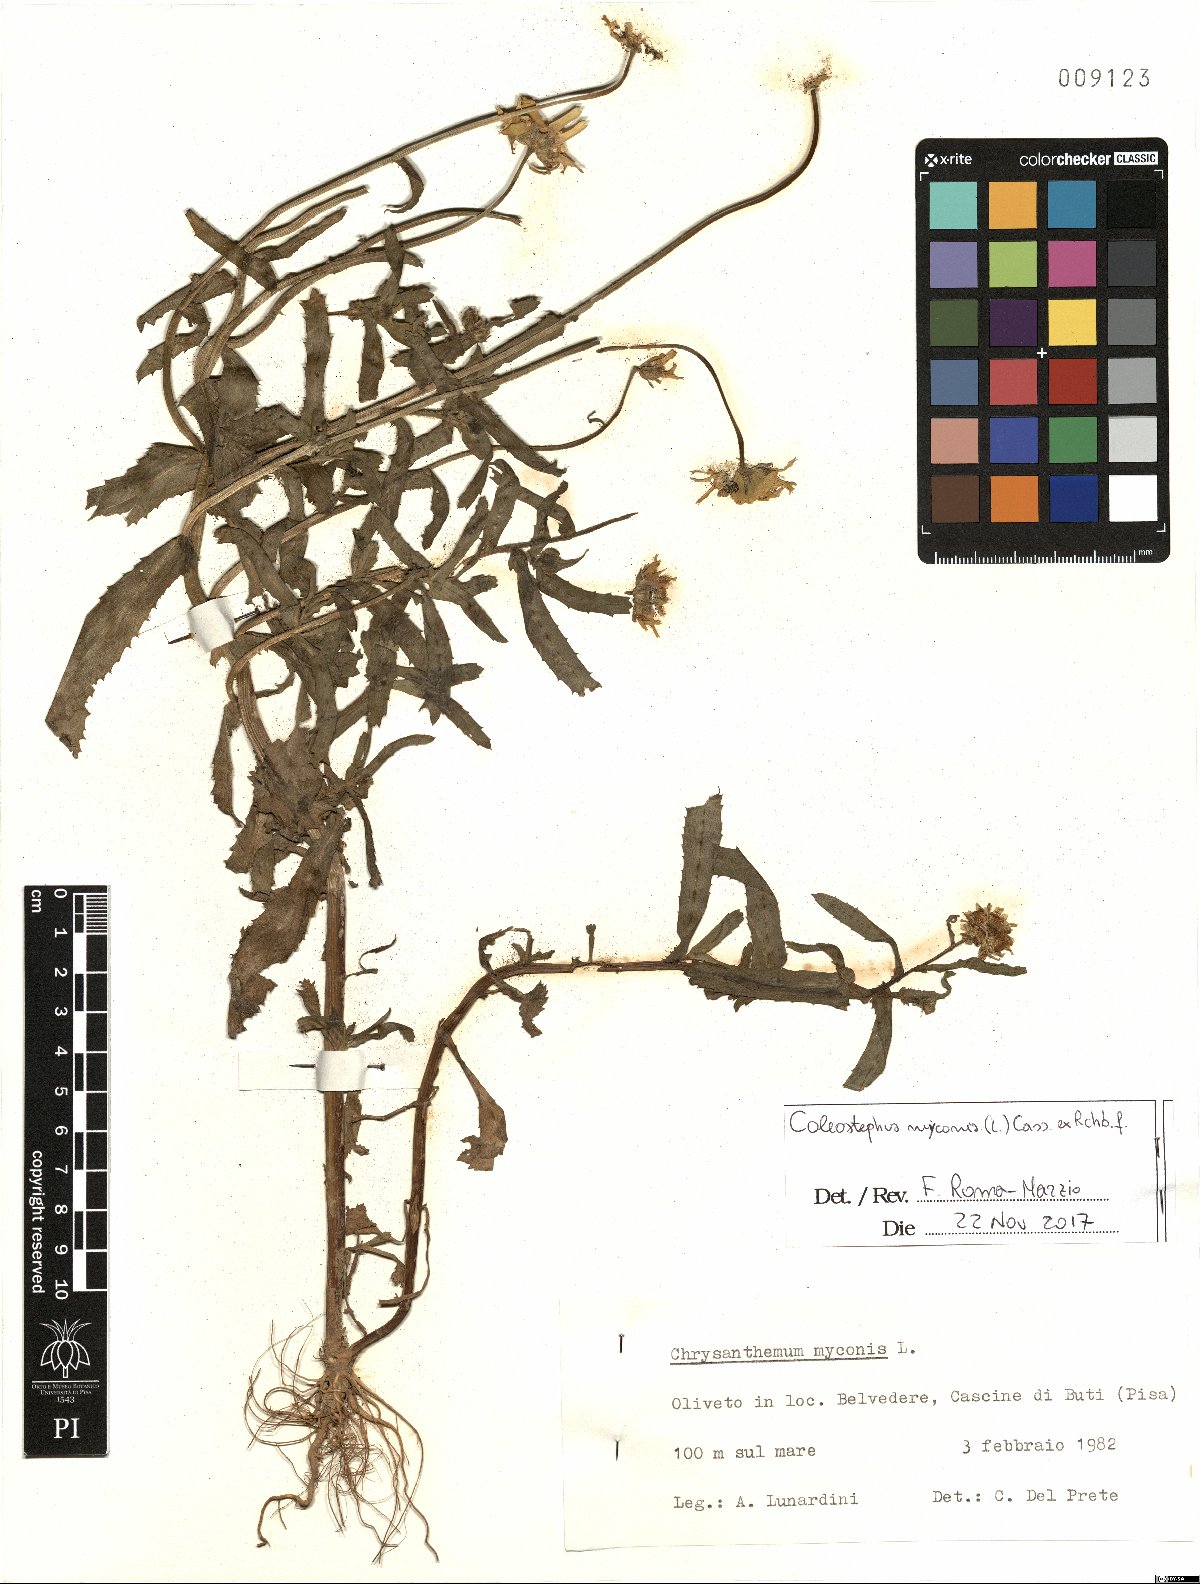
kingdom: Plantae
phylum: Tracheophyta
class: Magnoliopsida
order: Asterales
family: Asteraceae
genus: Coleostephus
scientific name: Coleostephus myconis
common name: Mediterranean marigold
